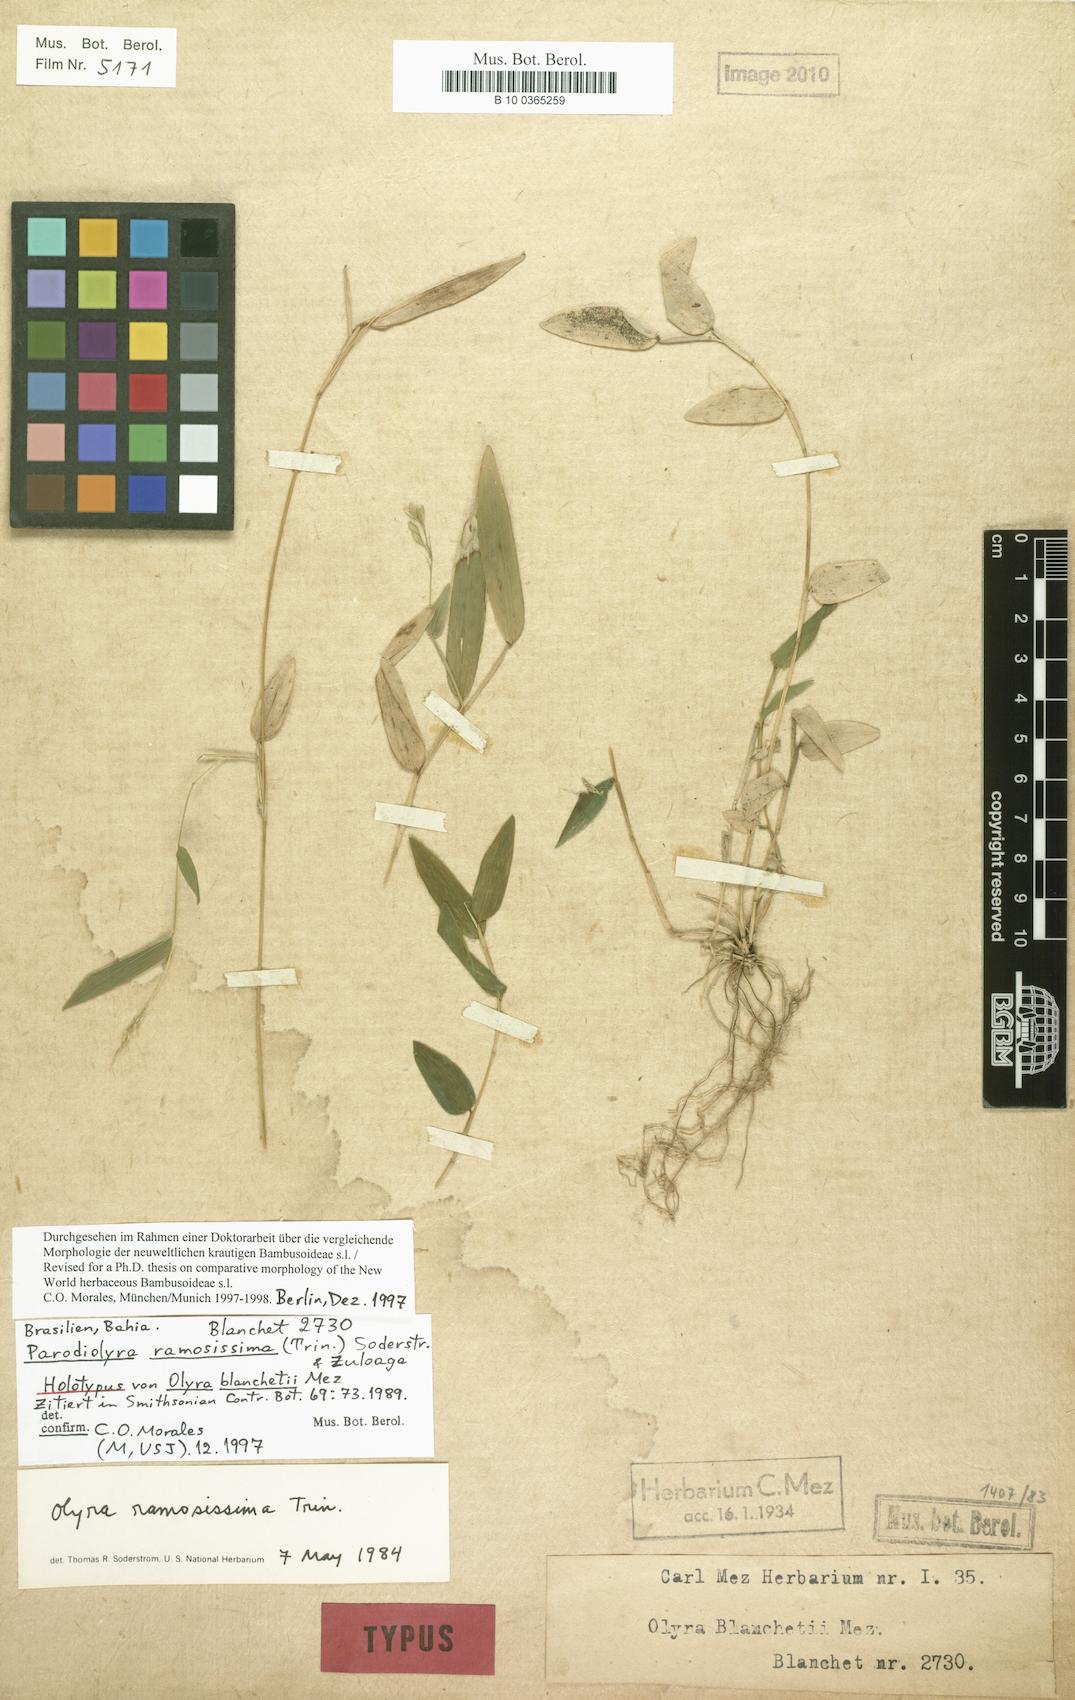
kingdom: Plantae
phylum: Tracheophyta
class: Liliopsida
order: Poales
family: Poaceae
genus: Parodiolyra
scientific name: Parodiolyra ramosissima
